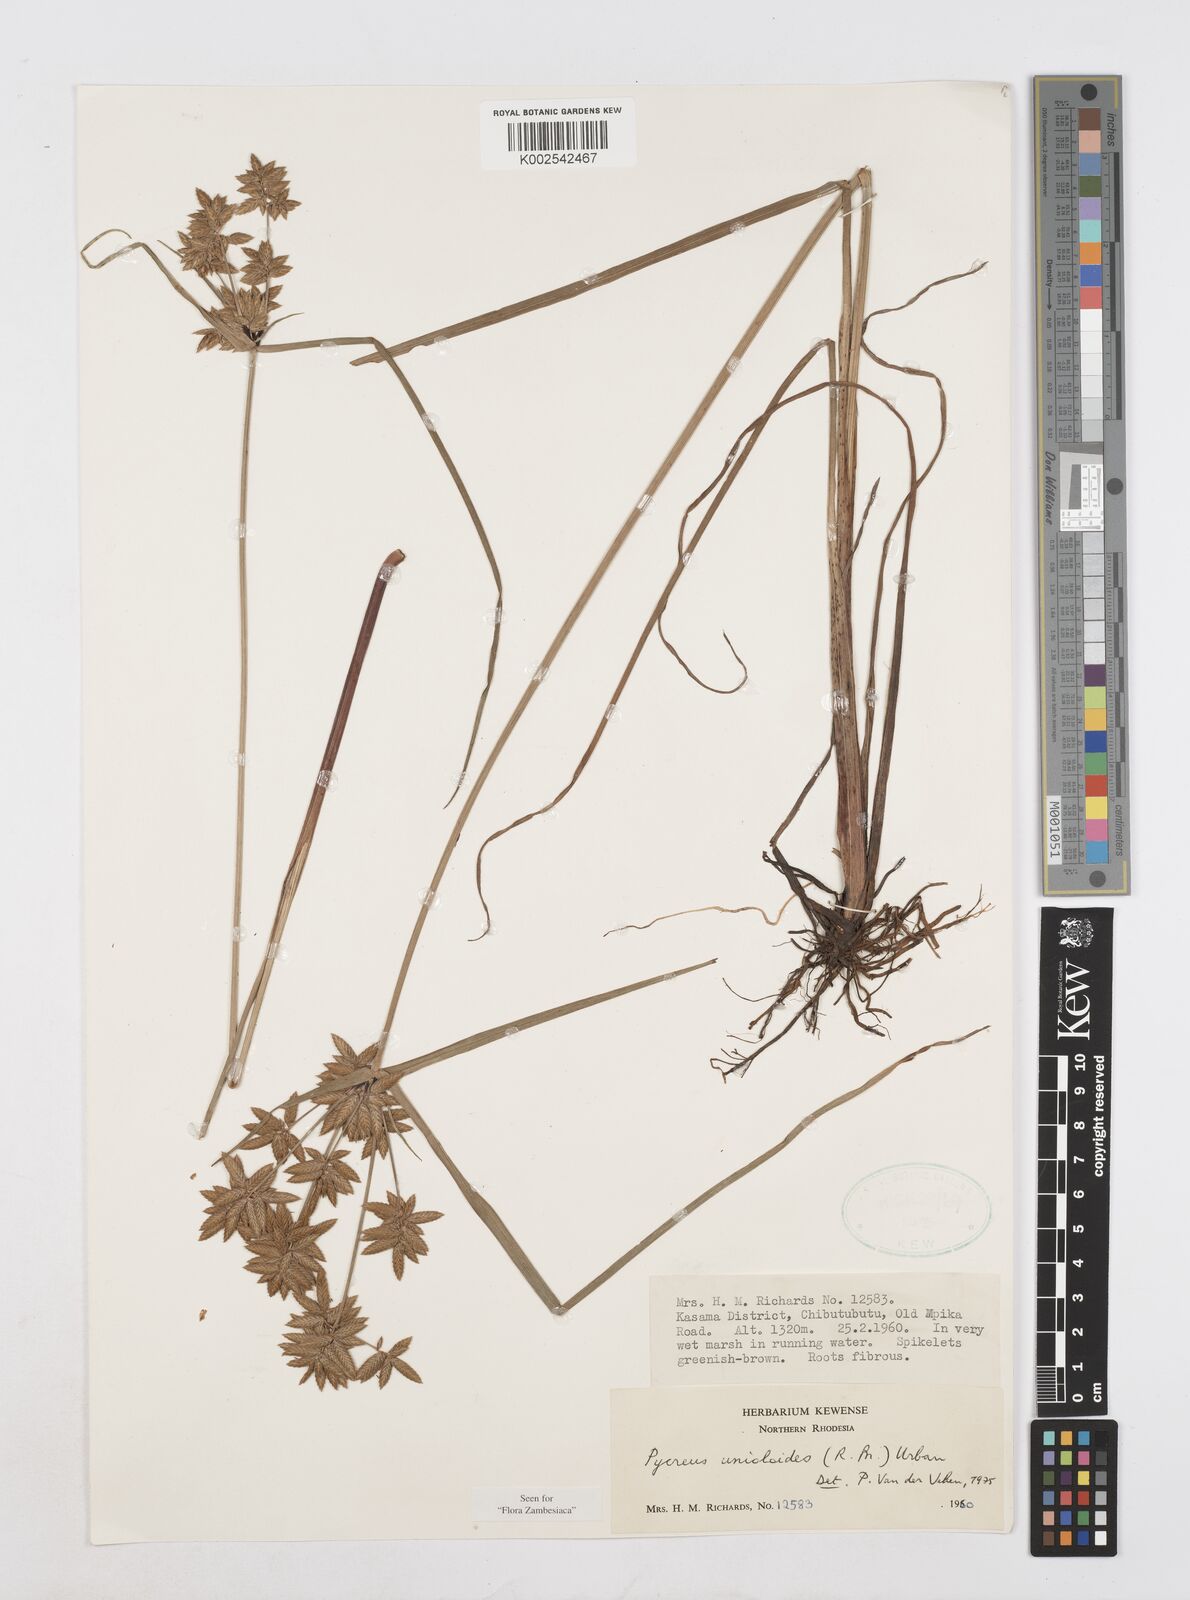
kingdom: Plantae
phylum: Tracheophyta
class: Liliopsida
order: Poales
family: Cyperaceae
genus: Cyperus
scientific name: Cyperus unioloides
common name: Uniola flatsedge
